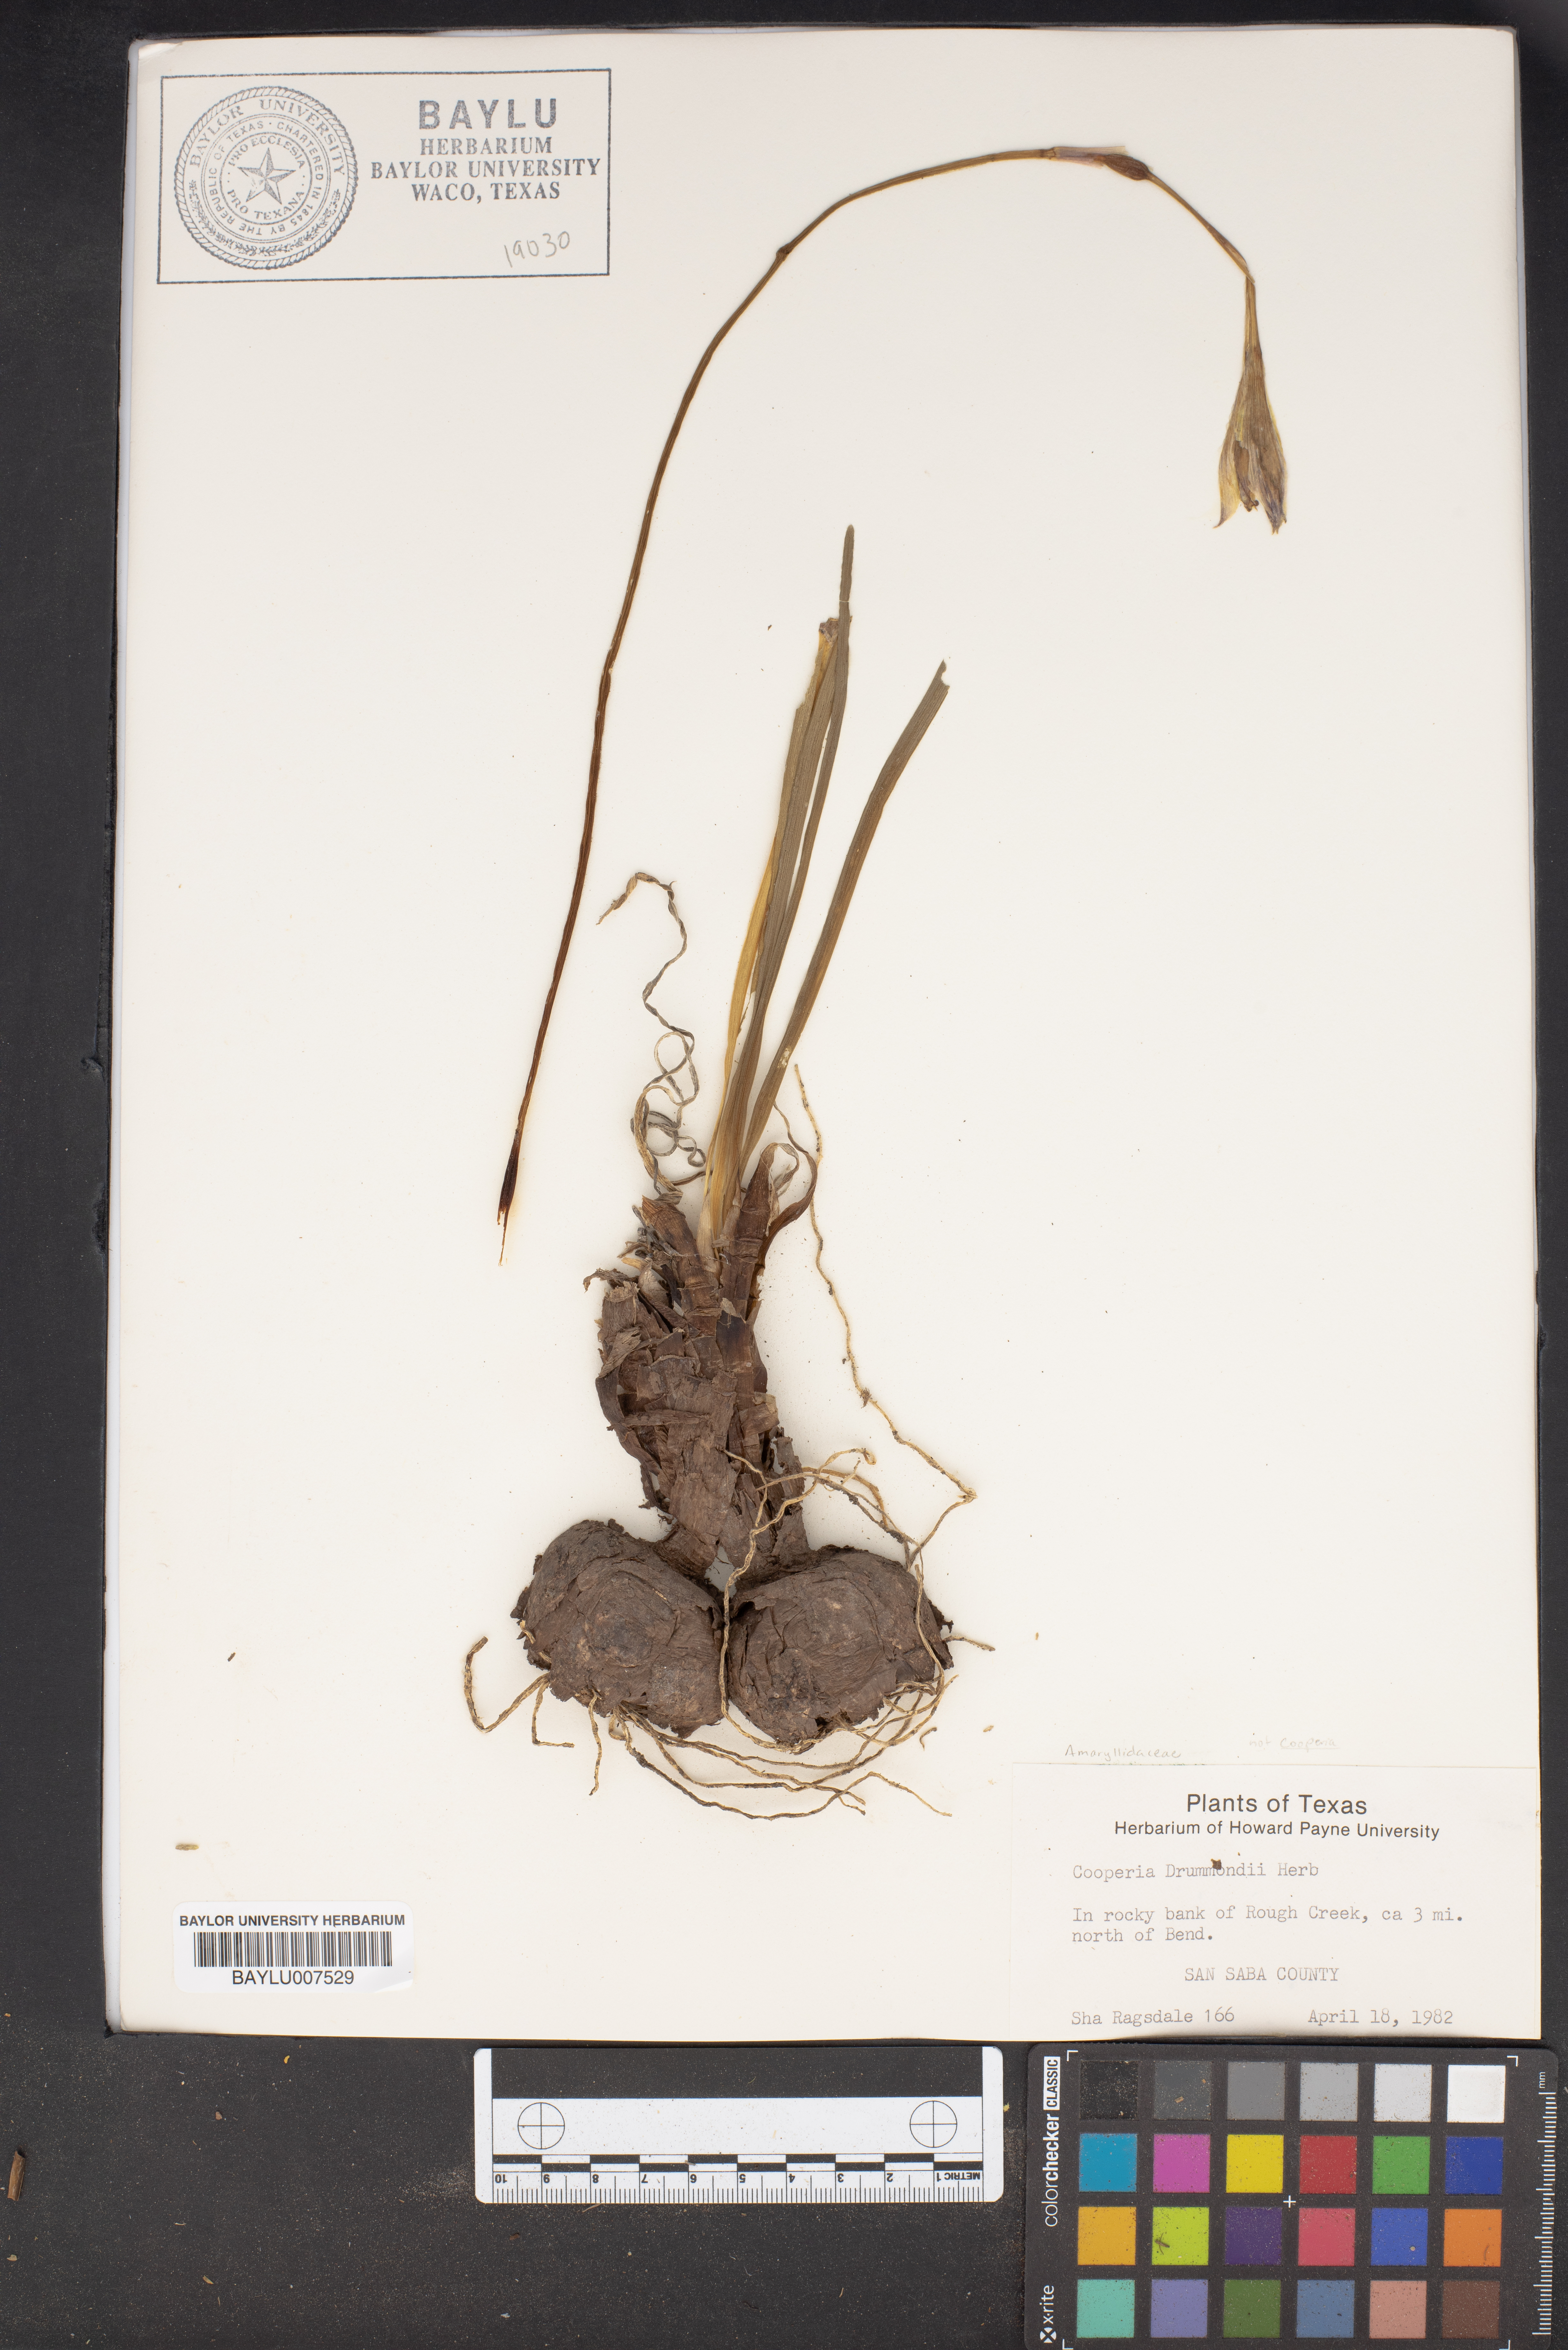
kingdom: Plantae
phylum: Tracheophyta
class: Liliopsida
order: Asparagales
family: Amaryllidaceae
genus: Zephyranthes
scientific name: Zephyranthes chlorosolen
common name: Evening rain-lily
